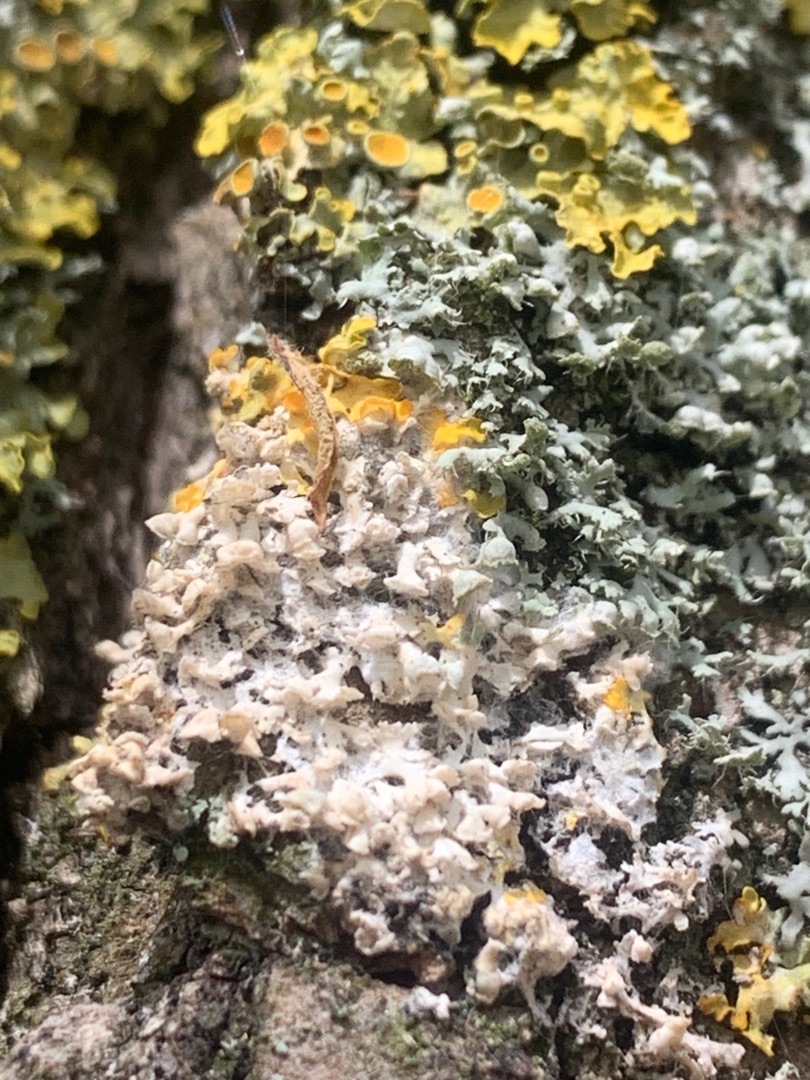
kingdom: Fungi
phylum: Ascomycota
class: Lecanoromycetes
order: Caliciales
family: Physciaceae
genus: Physcia
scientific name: Physcia adscendens
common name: Hætte-rosetlav
